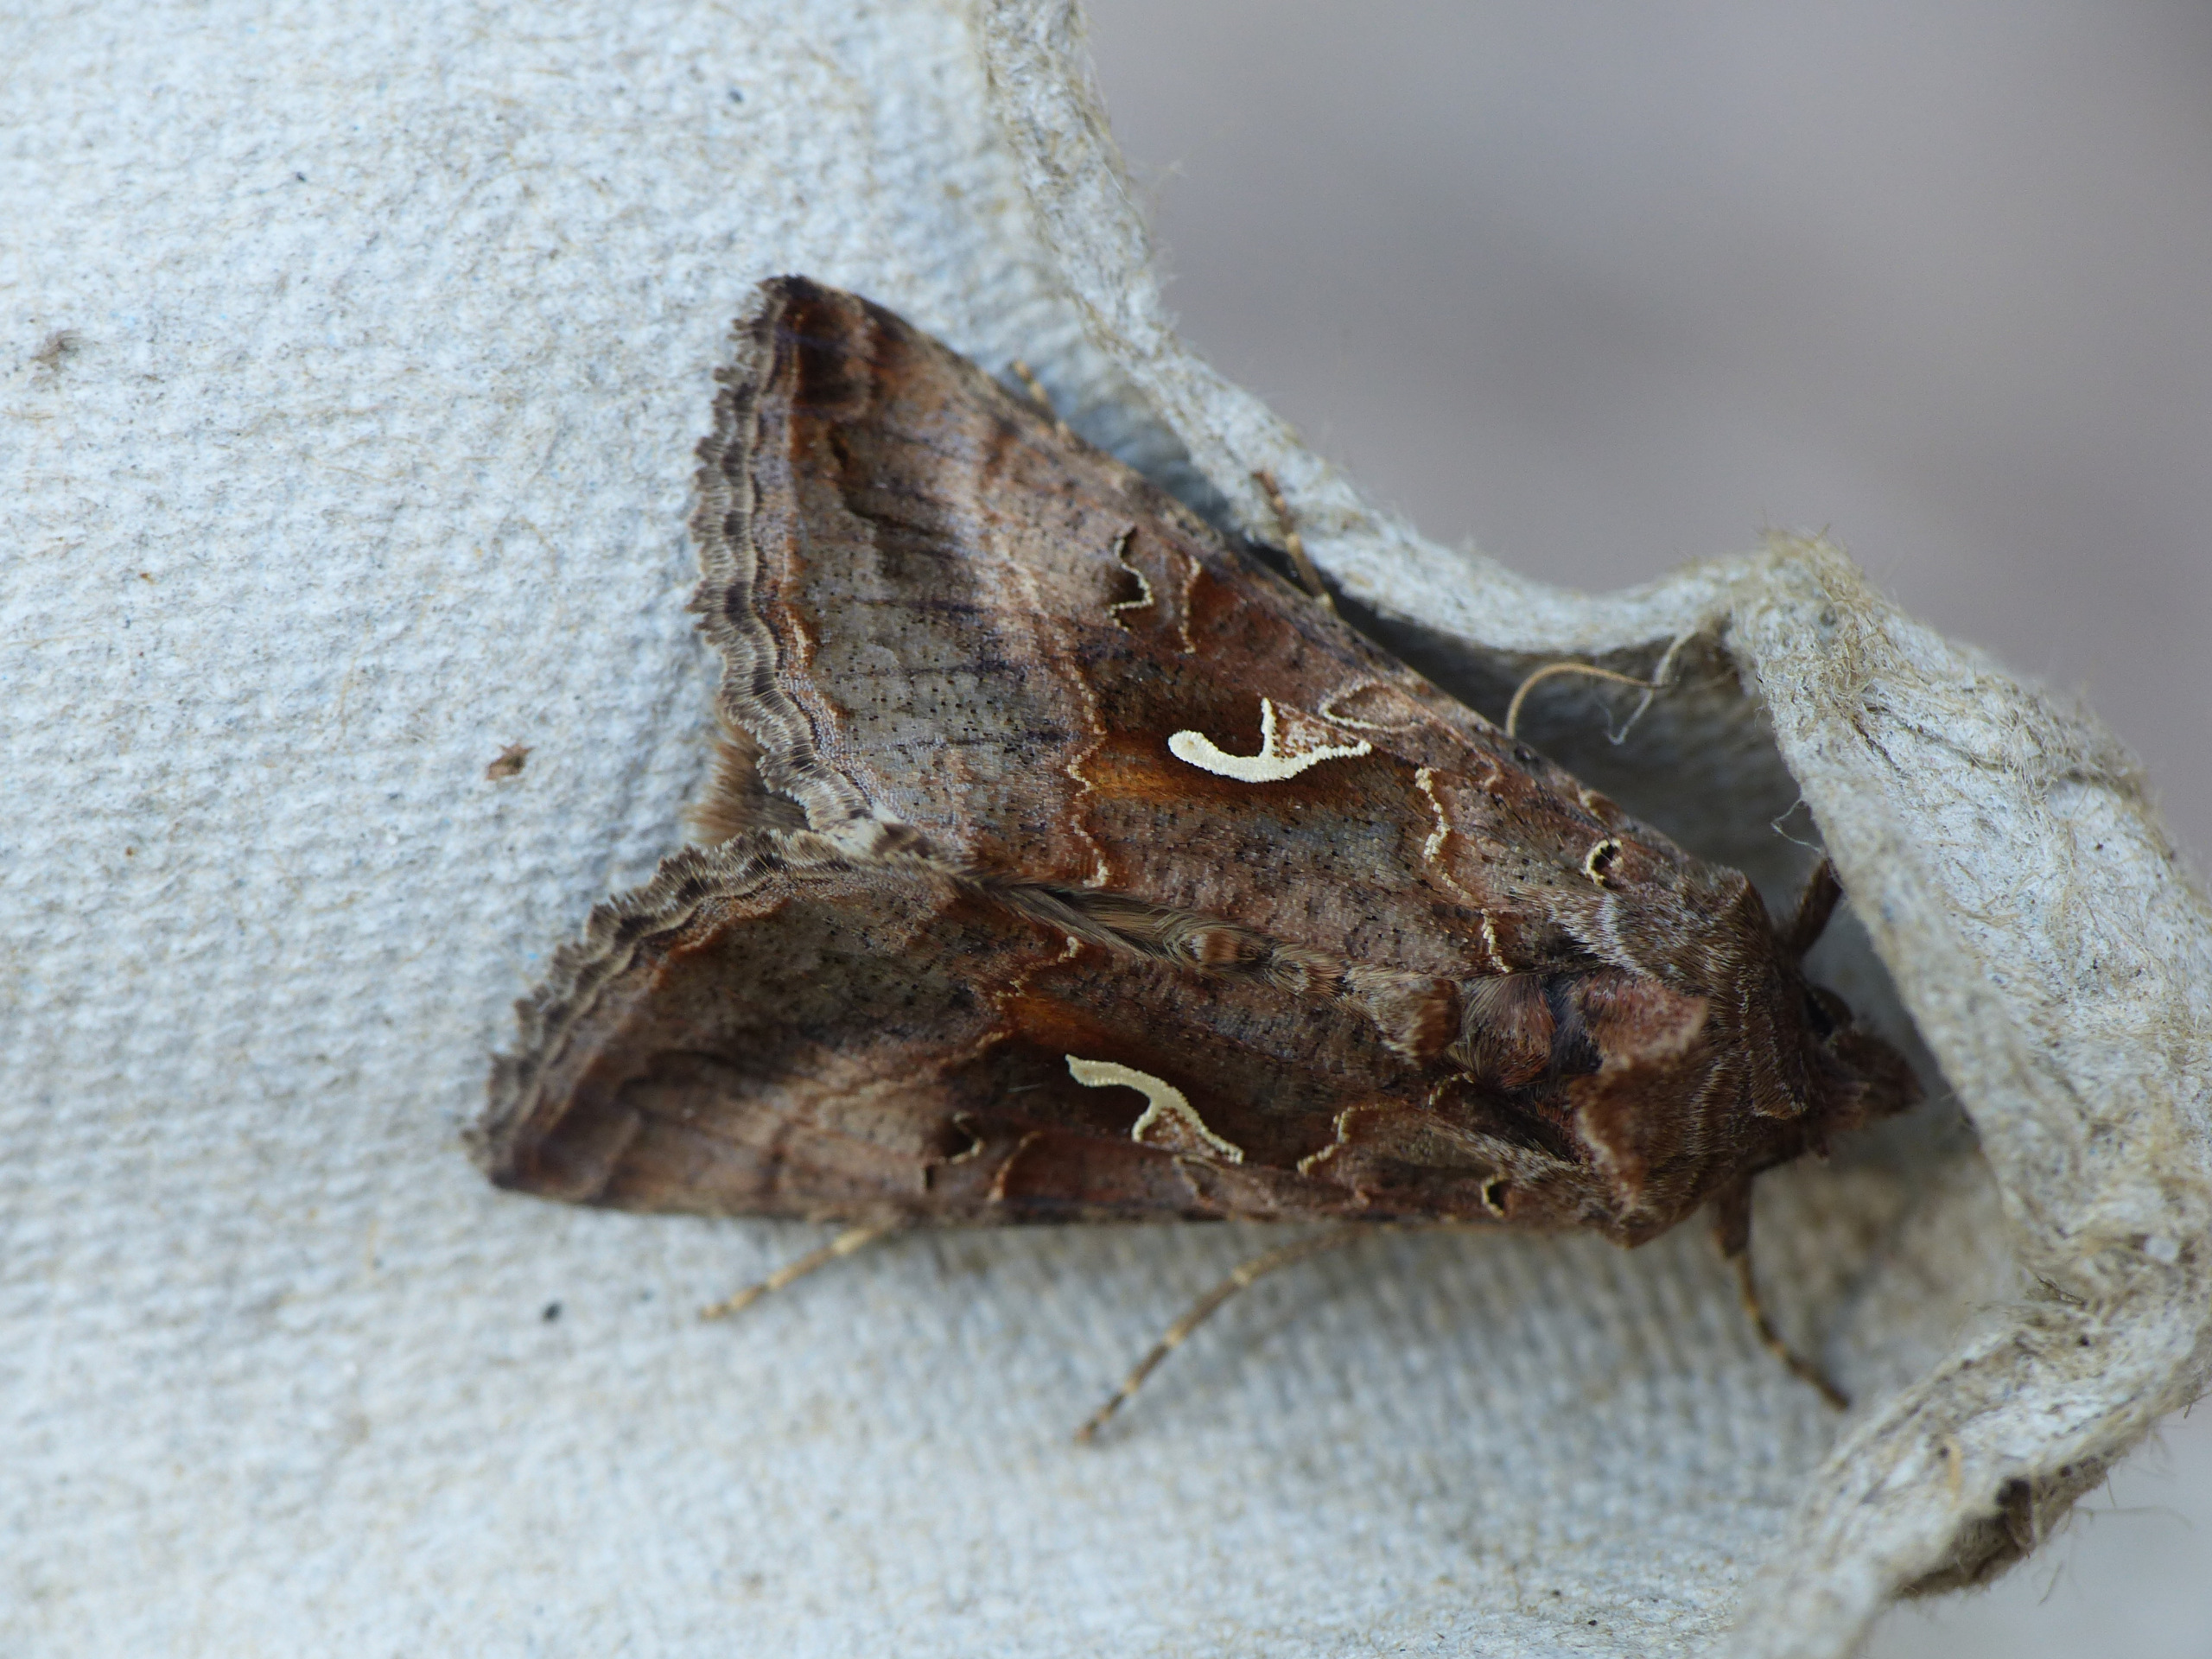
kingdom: Animalia
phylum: Arthropoda
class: Insecta
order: Lepidoptera
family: Noctuidae
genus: Autographa
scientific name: Autographa gamma
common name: Gammaugle
